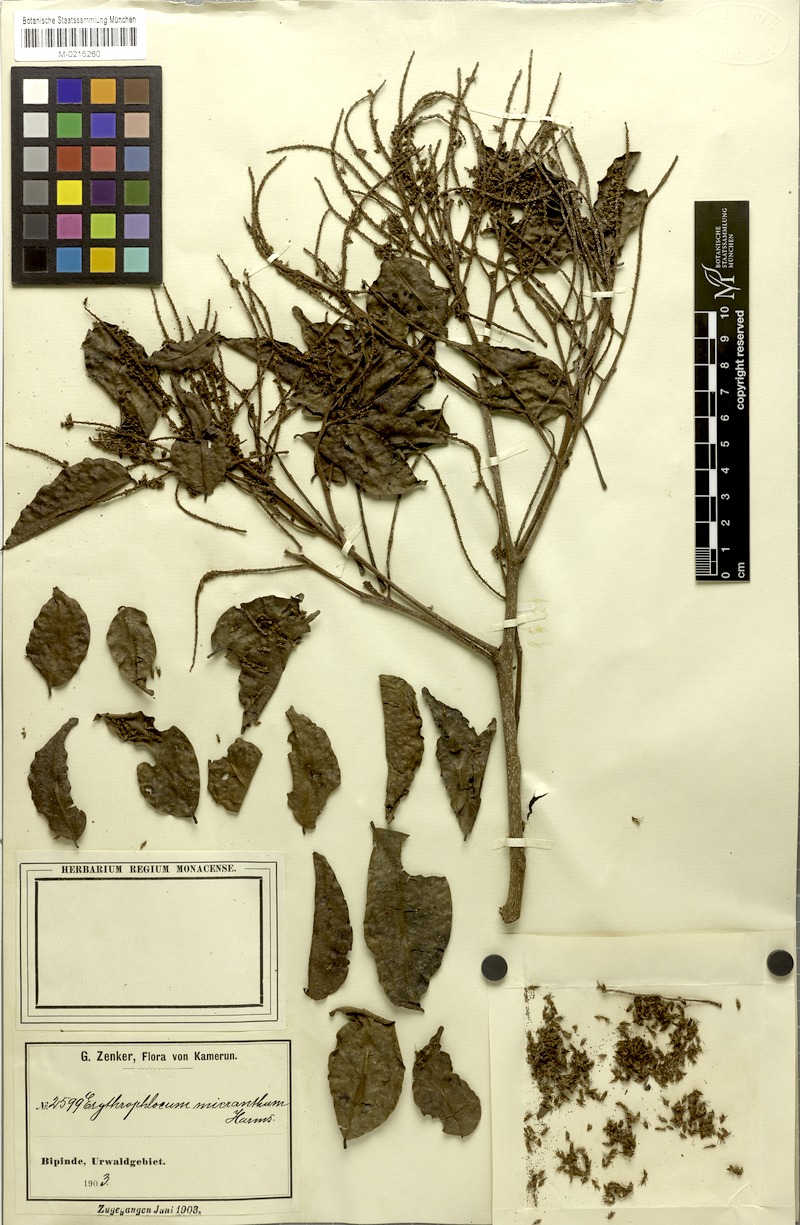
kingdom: Plantae
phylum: Tracheophyta
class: Magnoliopsida
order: Fabales
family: Fabaceae
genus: Erythrophleum
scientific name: Erythrophleum ivorense
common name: Ordealtree
